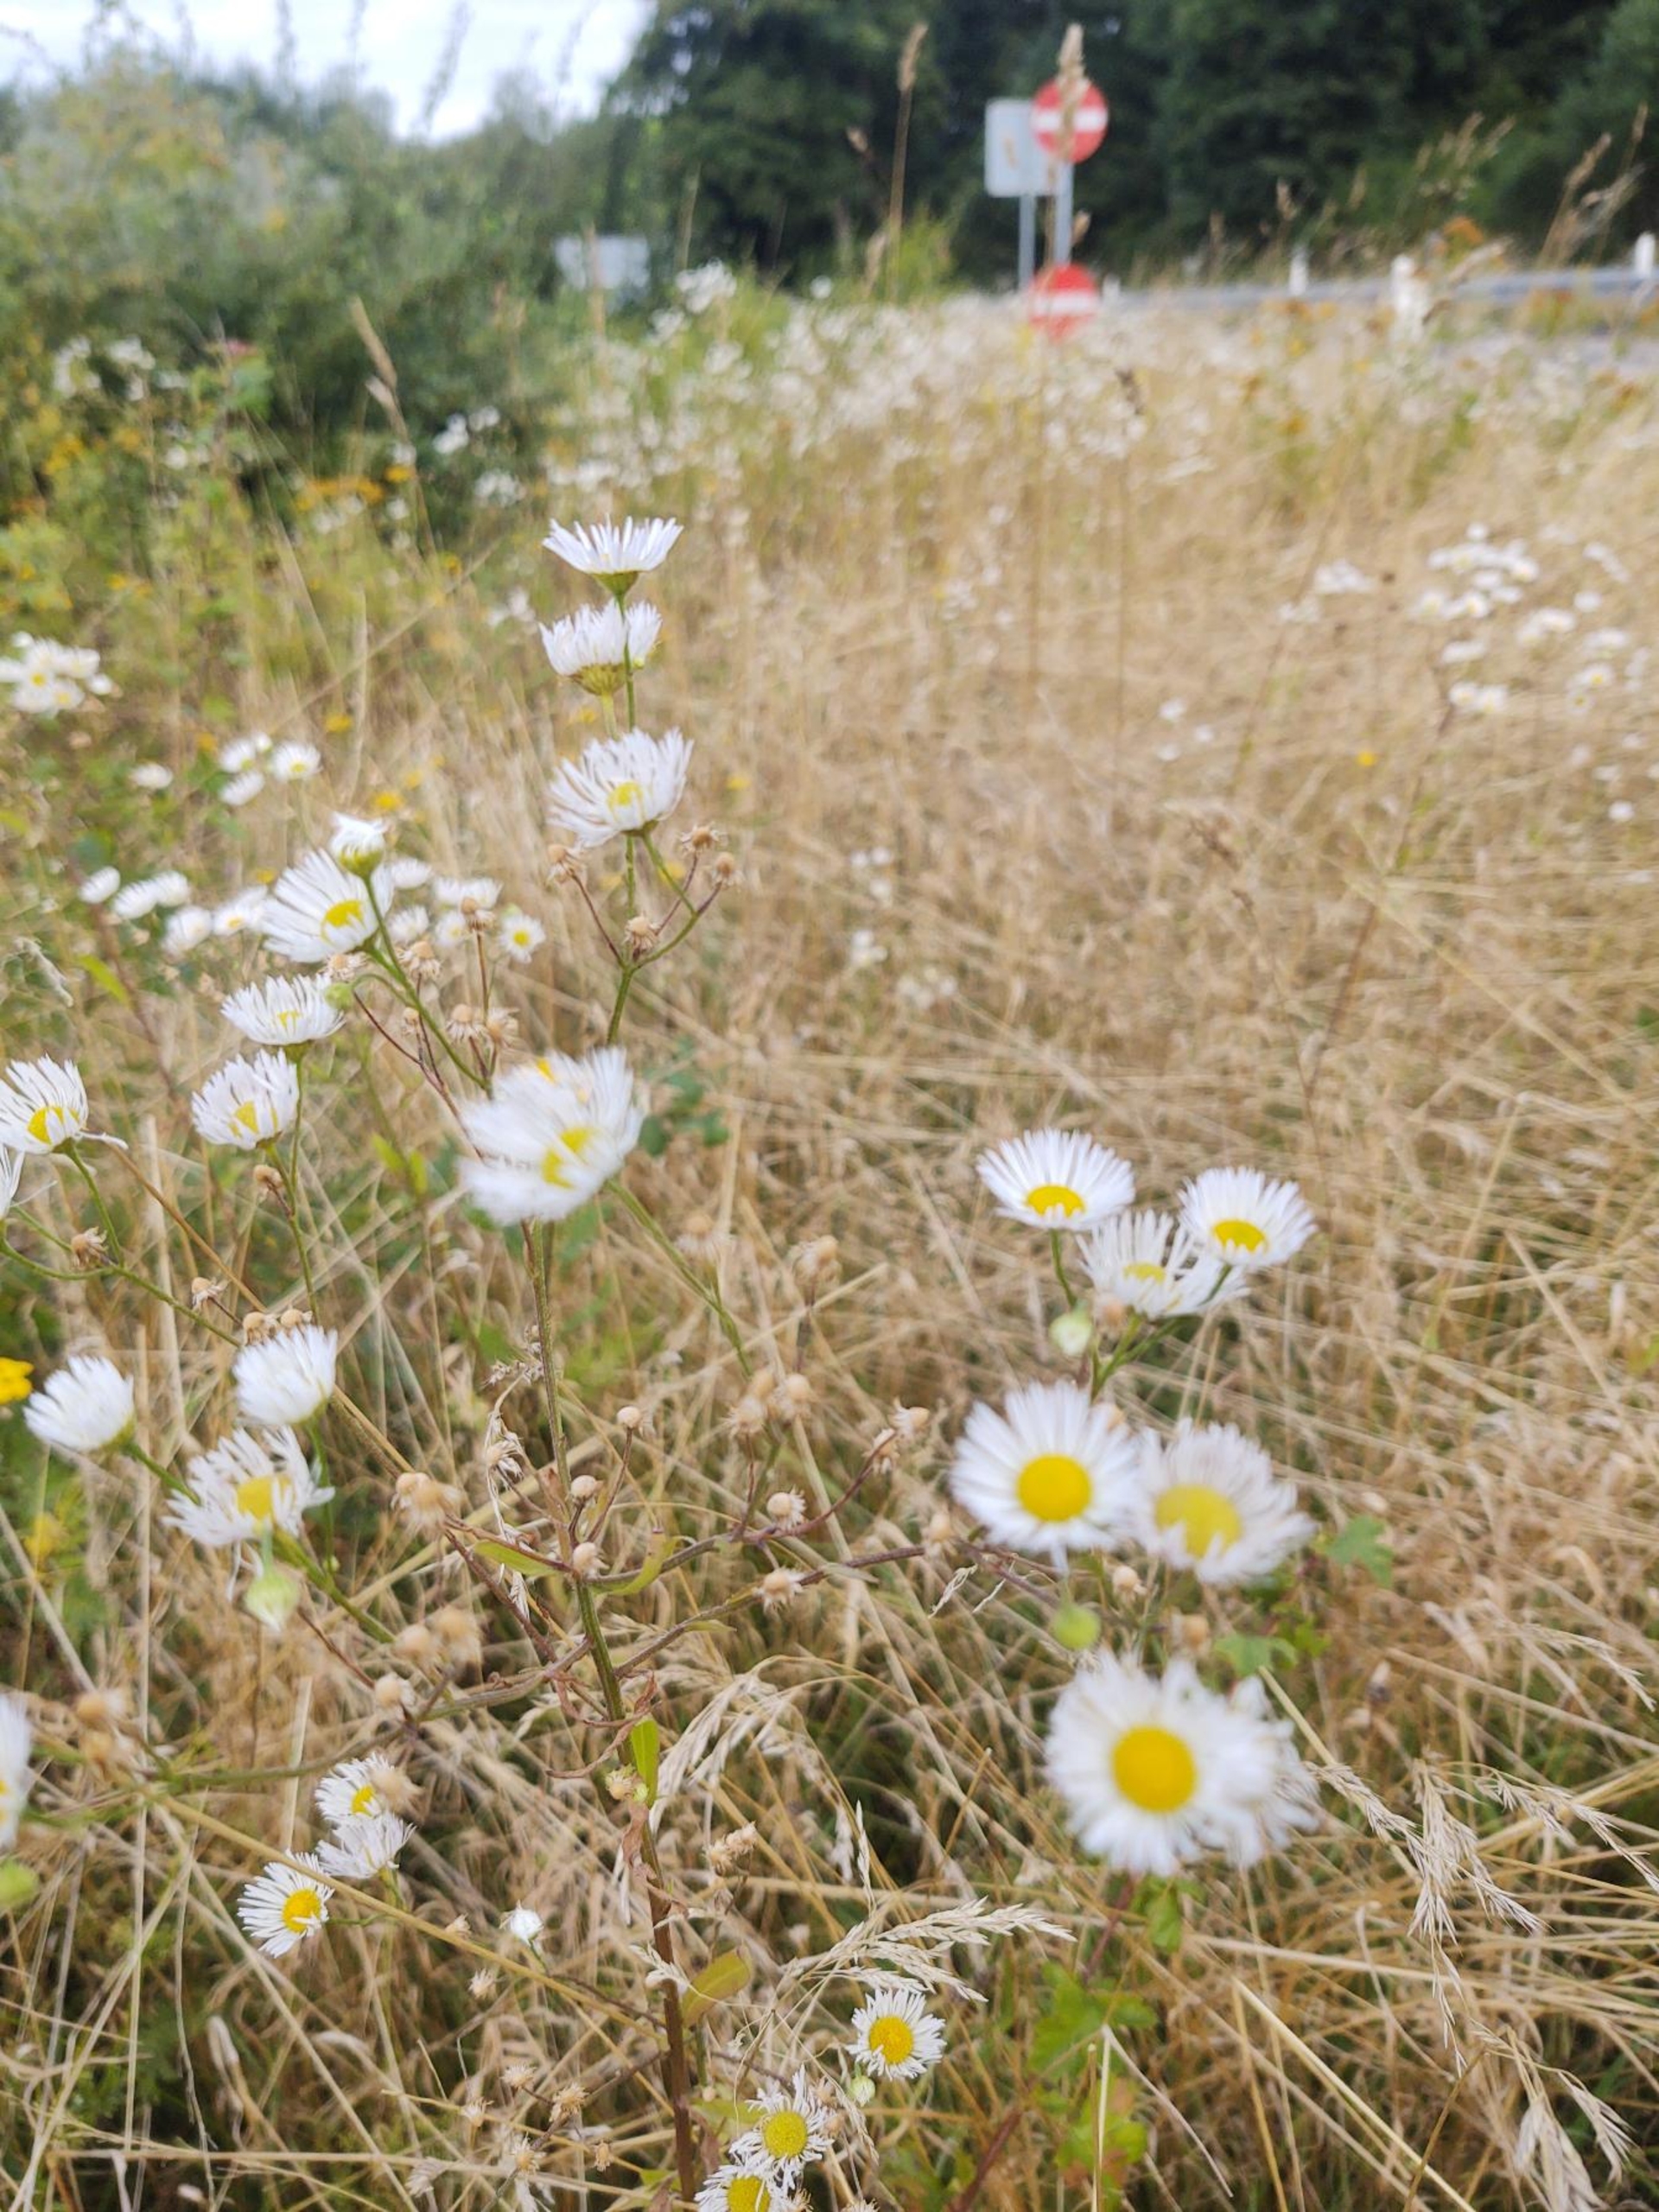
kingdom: Plantae
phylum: Tracheophyta
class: Magnoliopsida
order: Asterales
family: Asteraceae
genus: Erigeron
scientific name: Erigeron annuus
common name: Smalstråle
